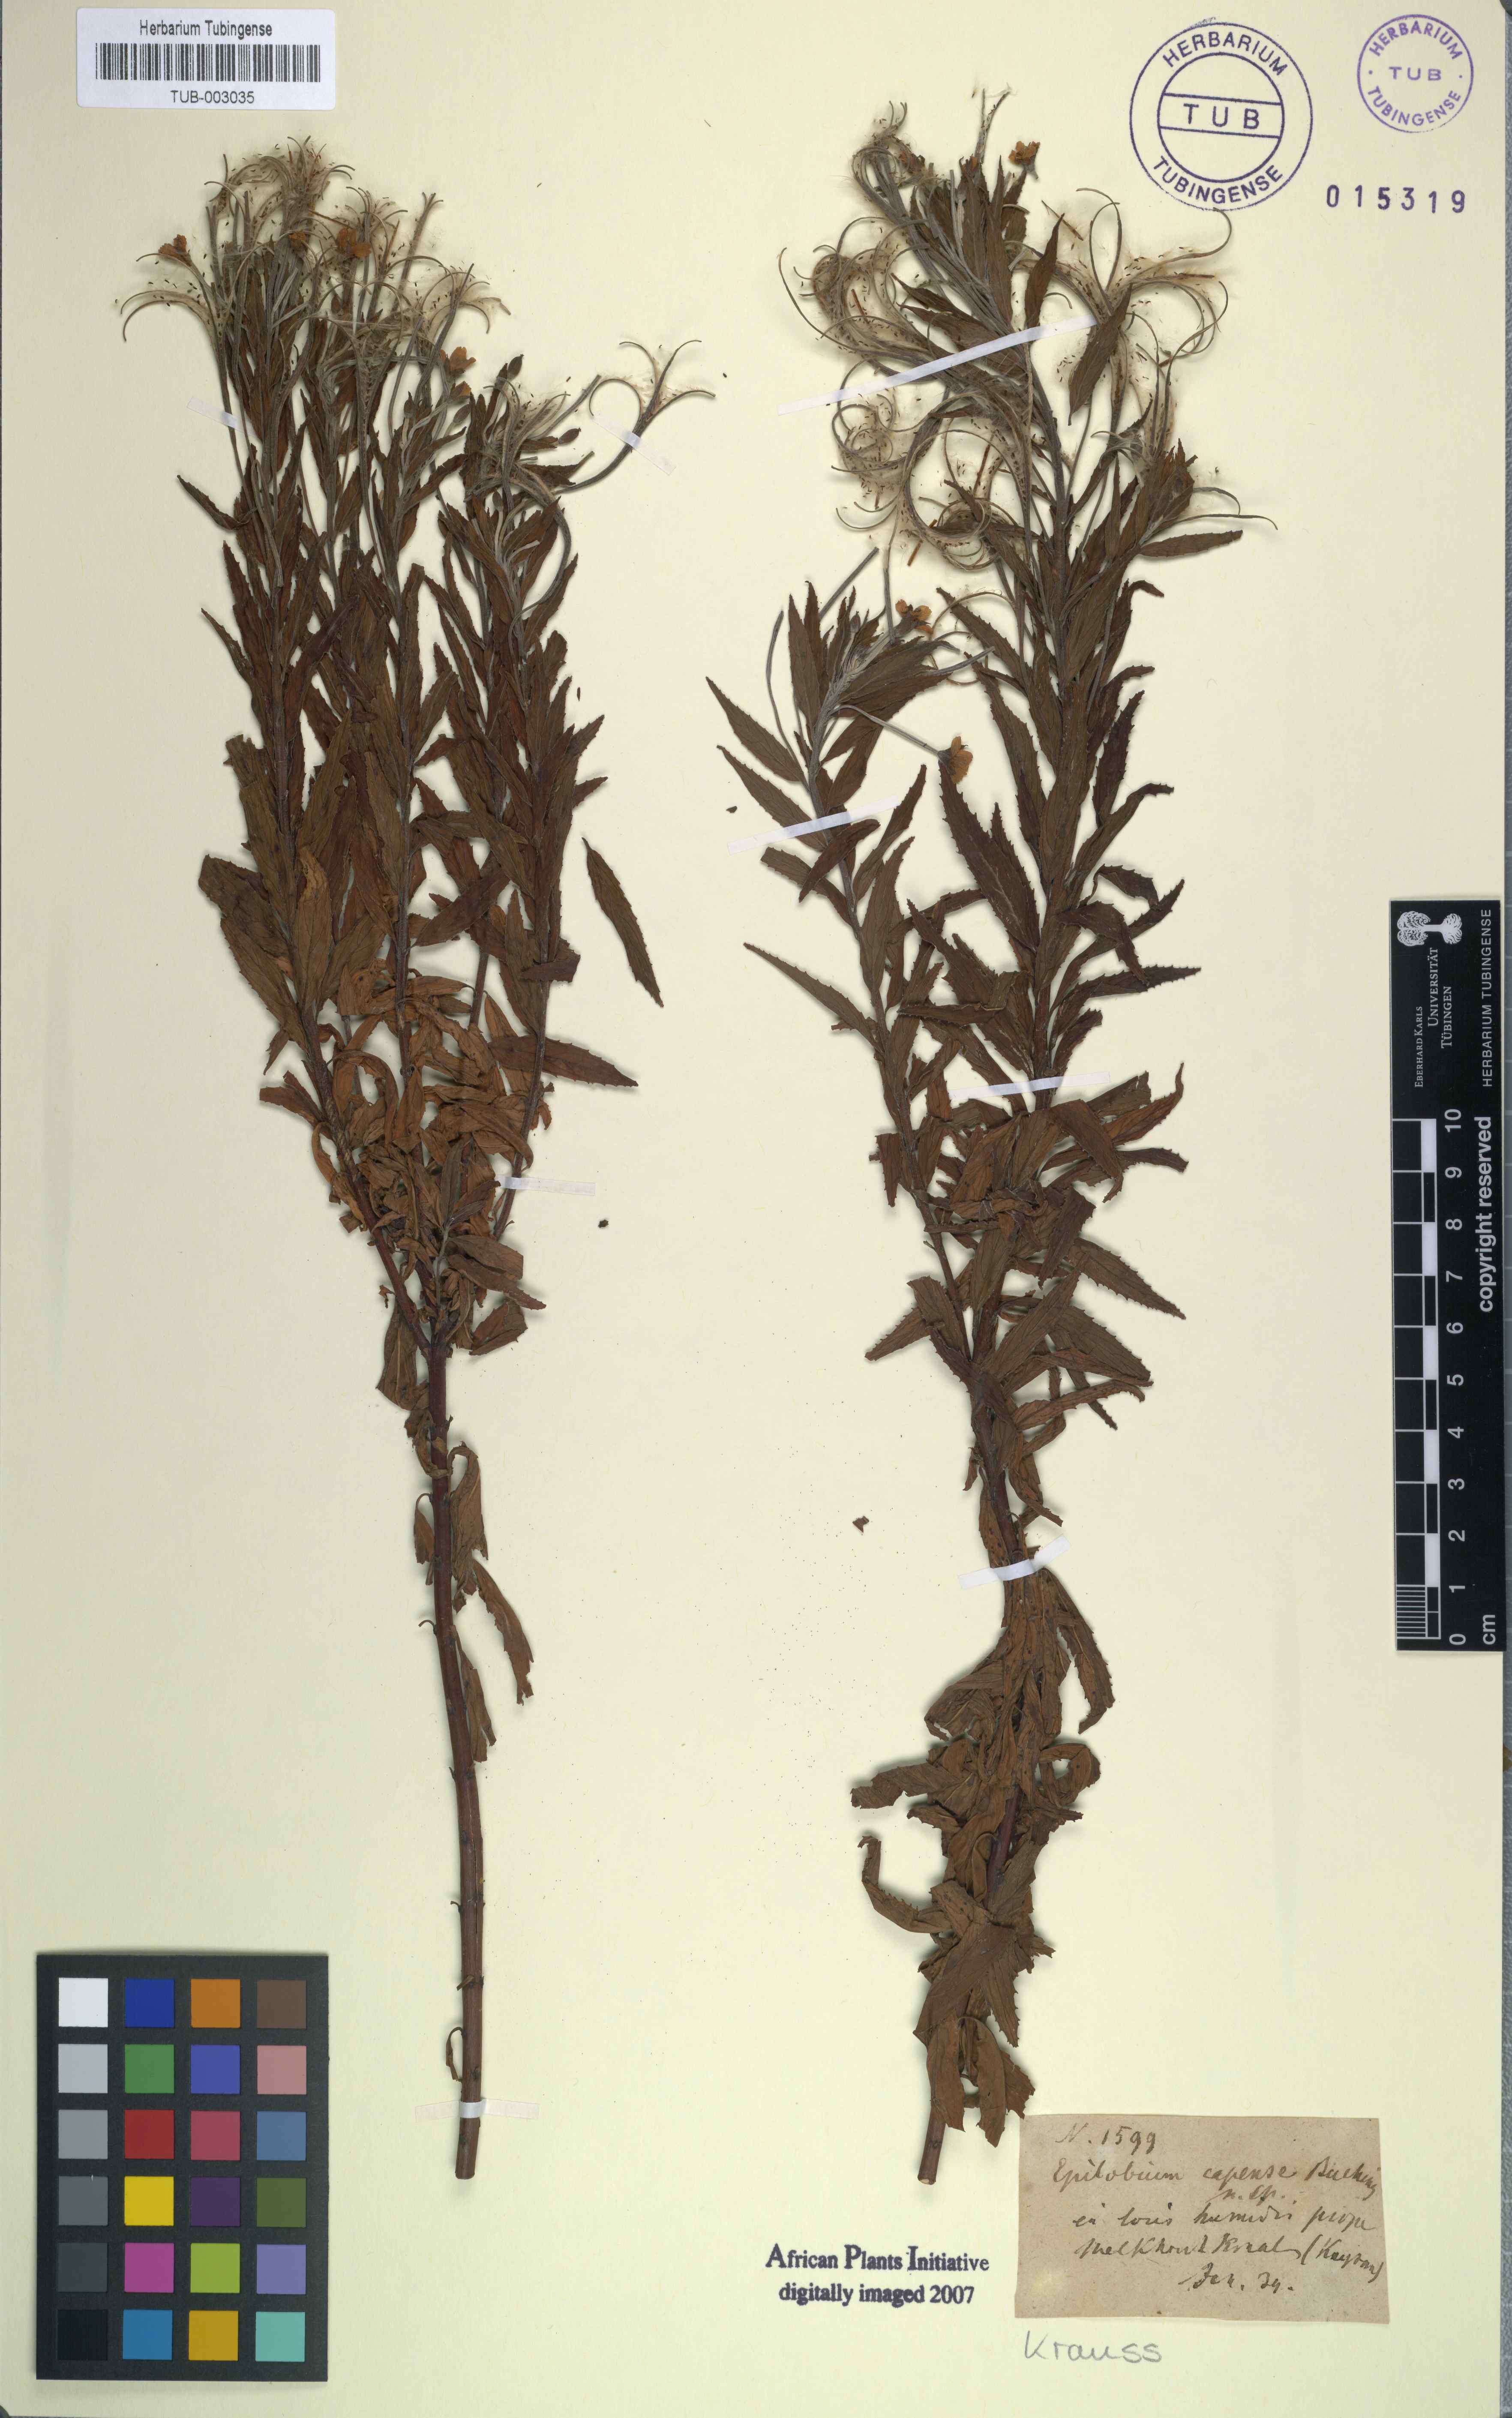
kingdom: Plantae
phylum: Tracheophyta
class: Magnoliopsida
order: Myrtales
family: Onagraceae
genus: Epilobium
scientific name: Epilobium capense
